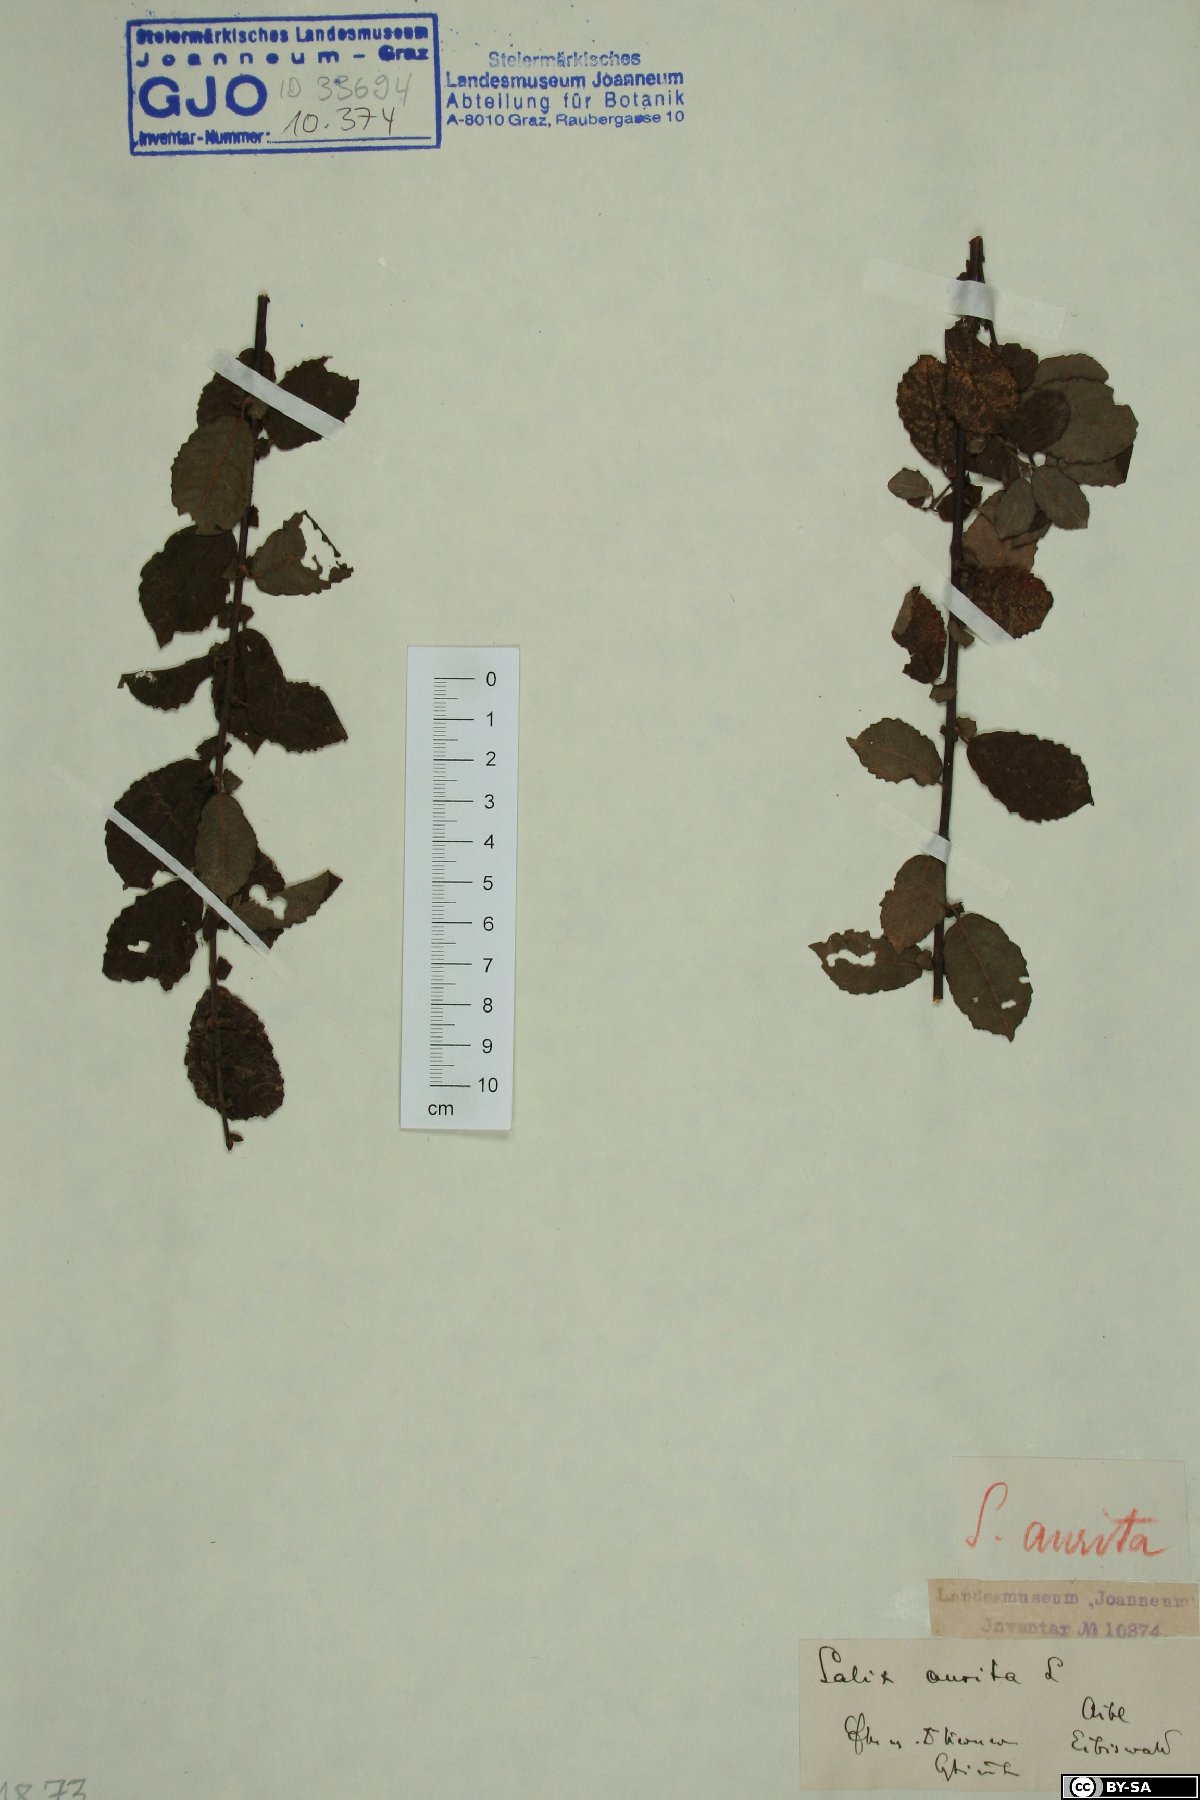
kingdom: Plantae
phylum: Tracheophyta
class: Magnoliopsida
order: Malpighiales
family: Salicaceae
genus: Salix
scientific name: Salix aurita
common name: Eared willow
